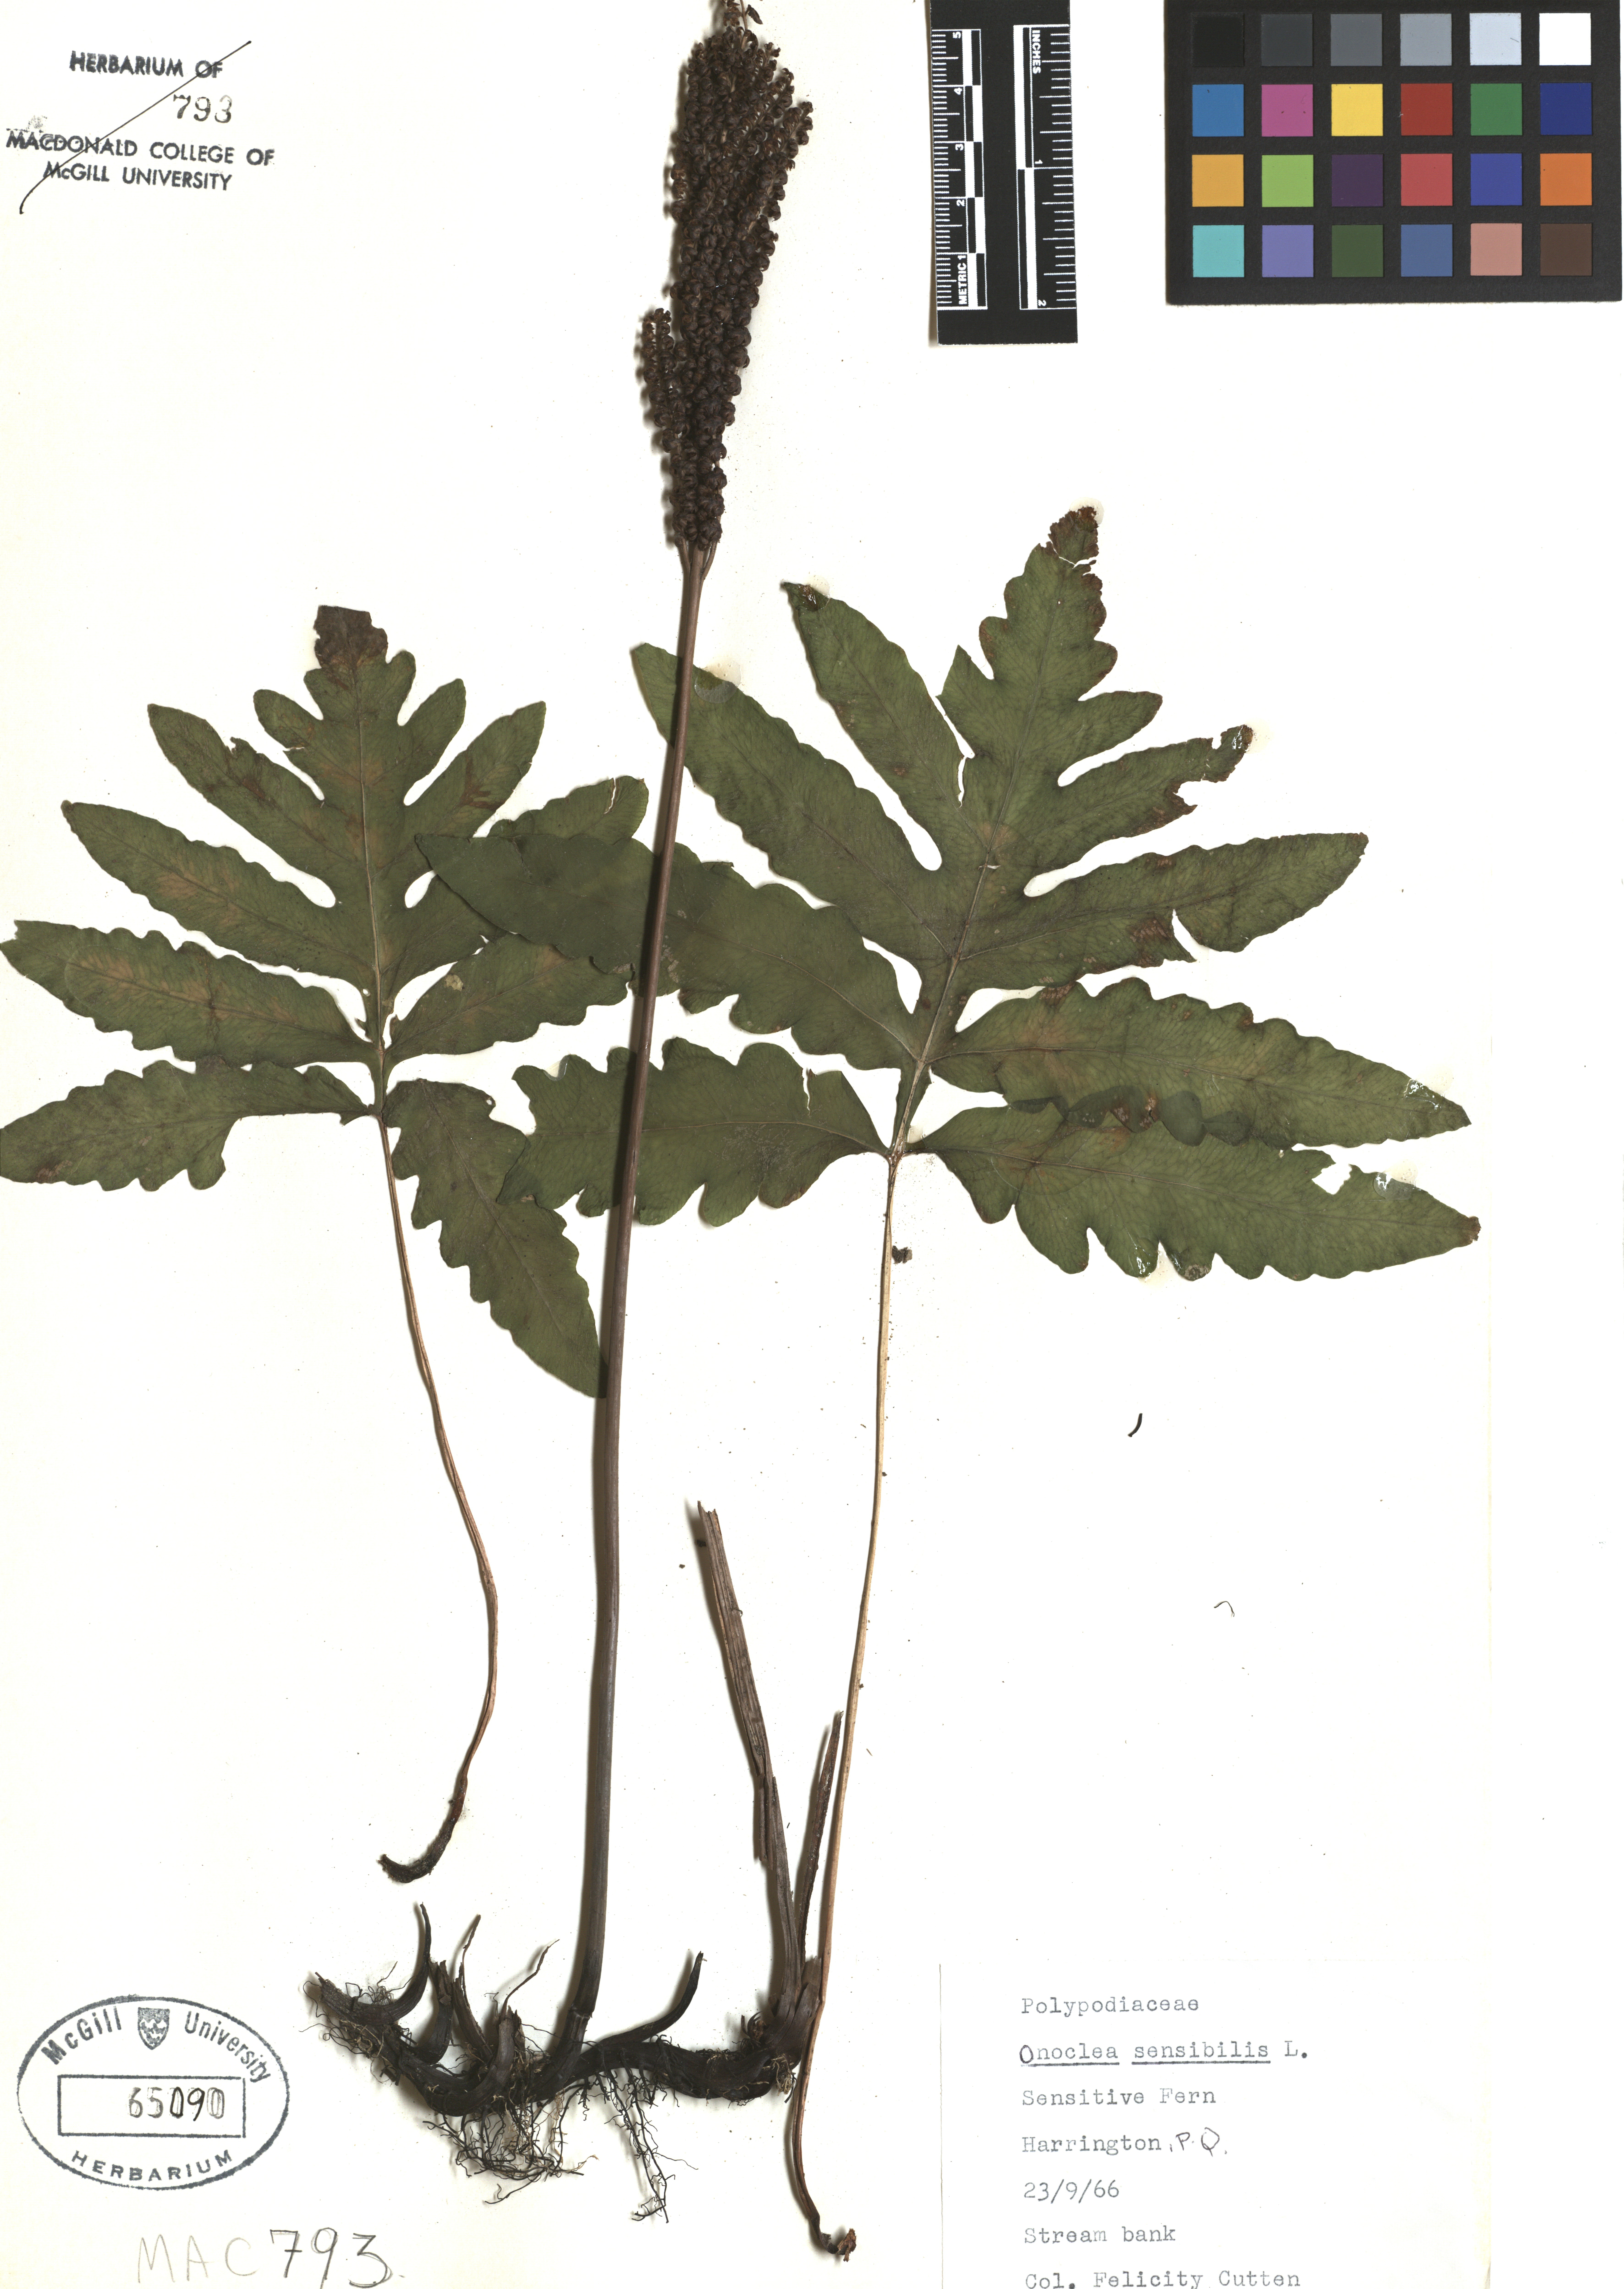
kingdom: Plantae
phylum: Tracheophyta
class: Polypodiopsida
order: Polypodiales
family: Onocleaceae
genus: Onoclea
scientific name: Onoclea sensibilis
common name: Sensitive fern
